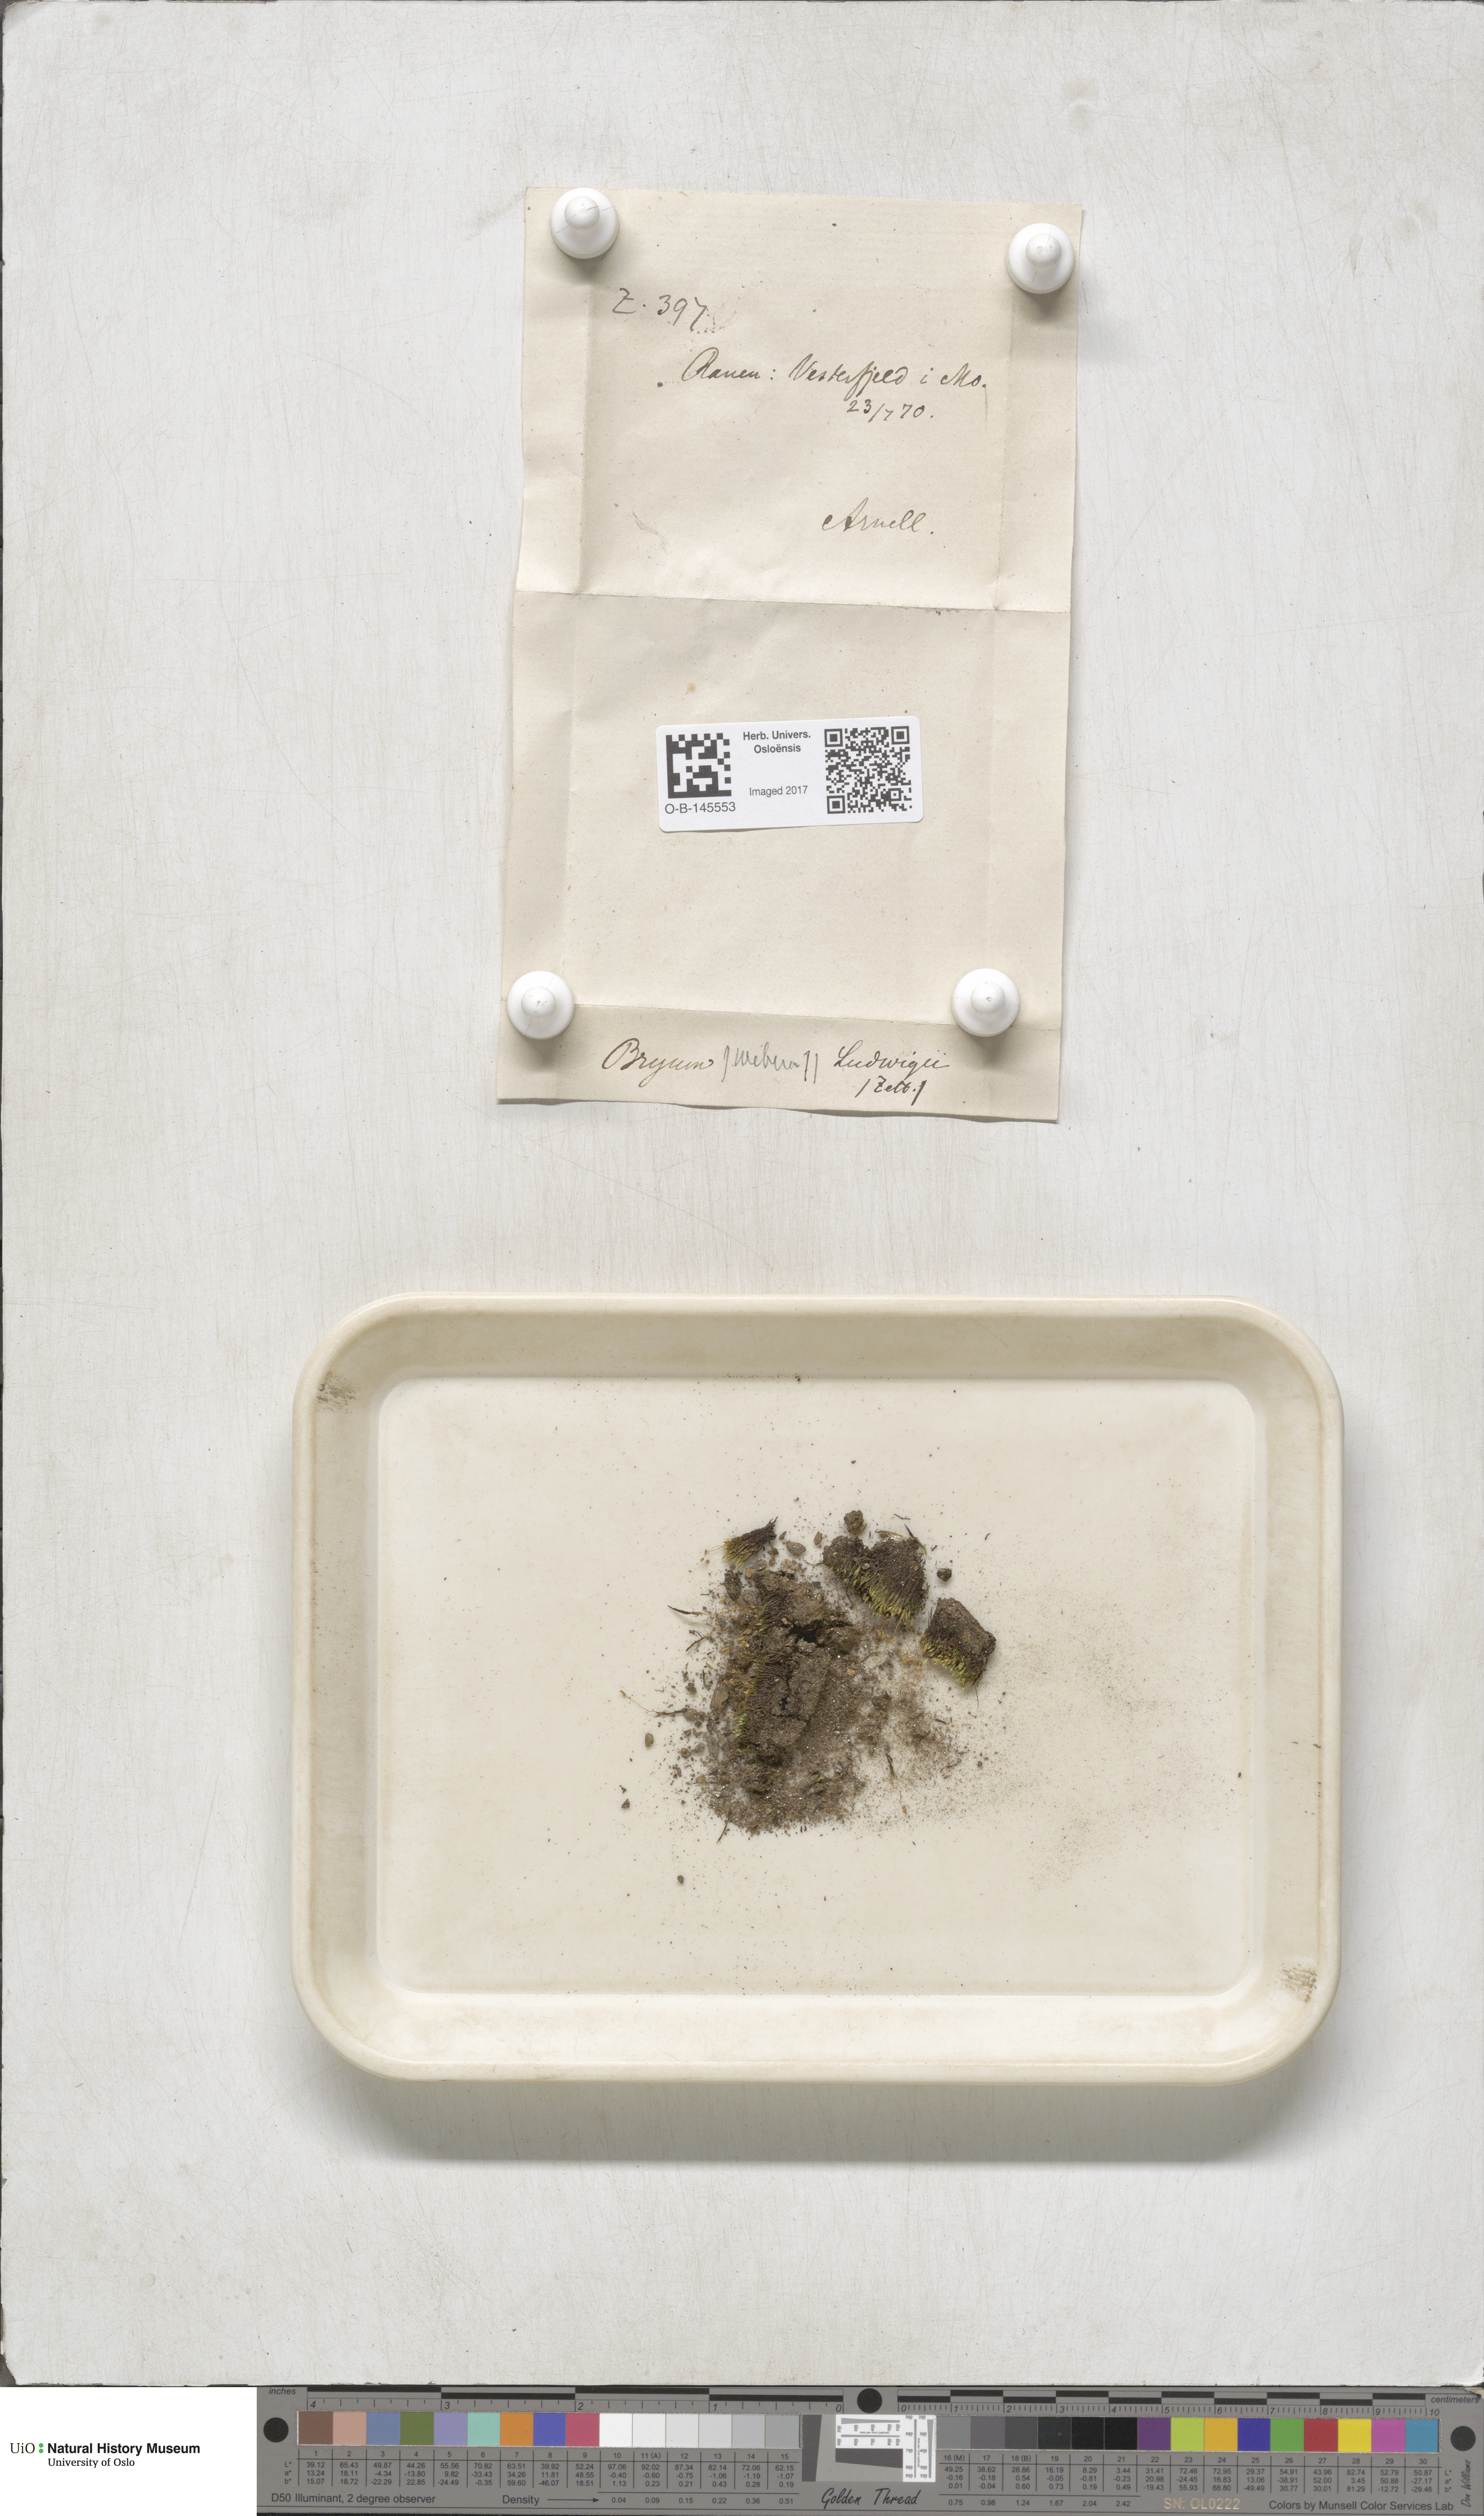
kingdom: Plantae
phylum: Bryophyta
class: Bryopsida
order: Bryales
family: Mniaceae
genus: Pohlia
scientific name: Pohlia ludwigii
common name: Ludwig's thread-moss
